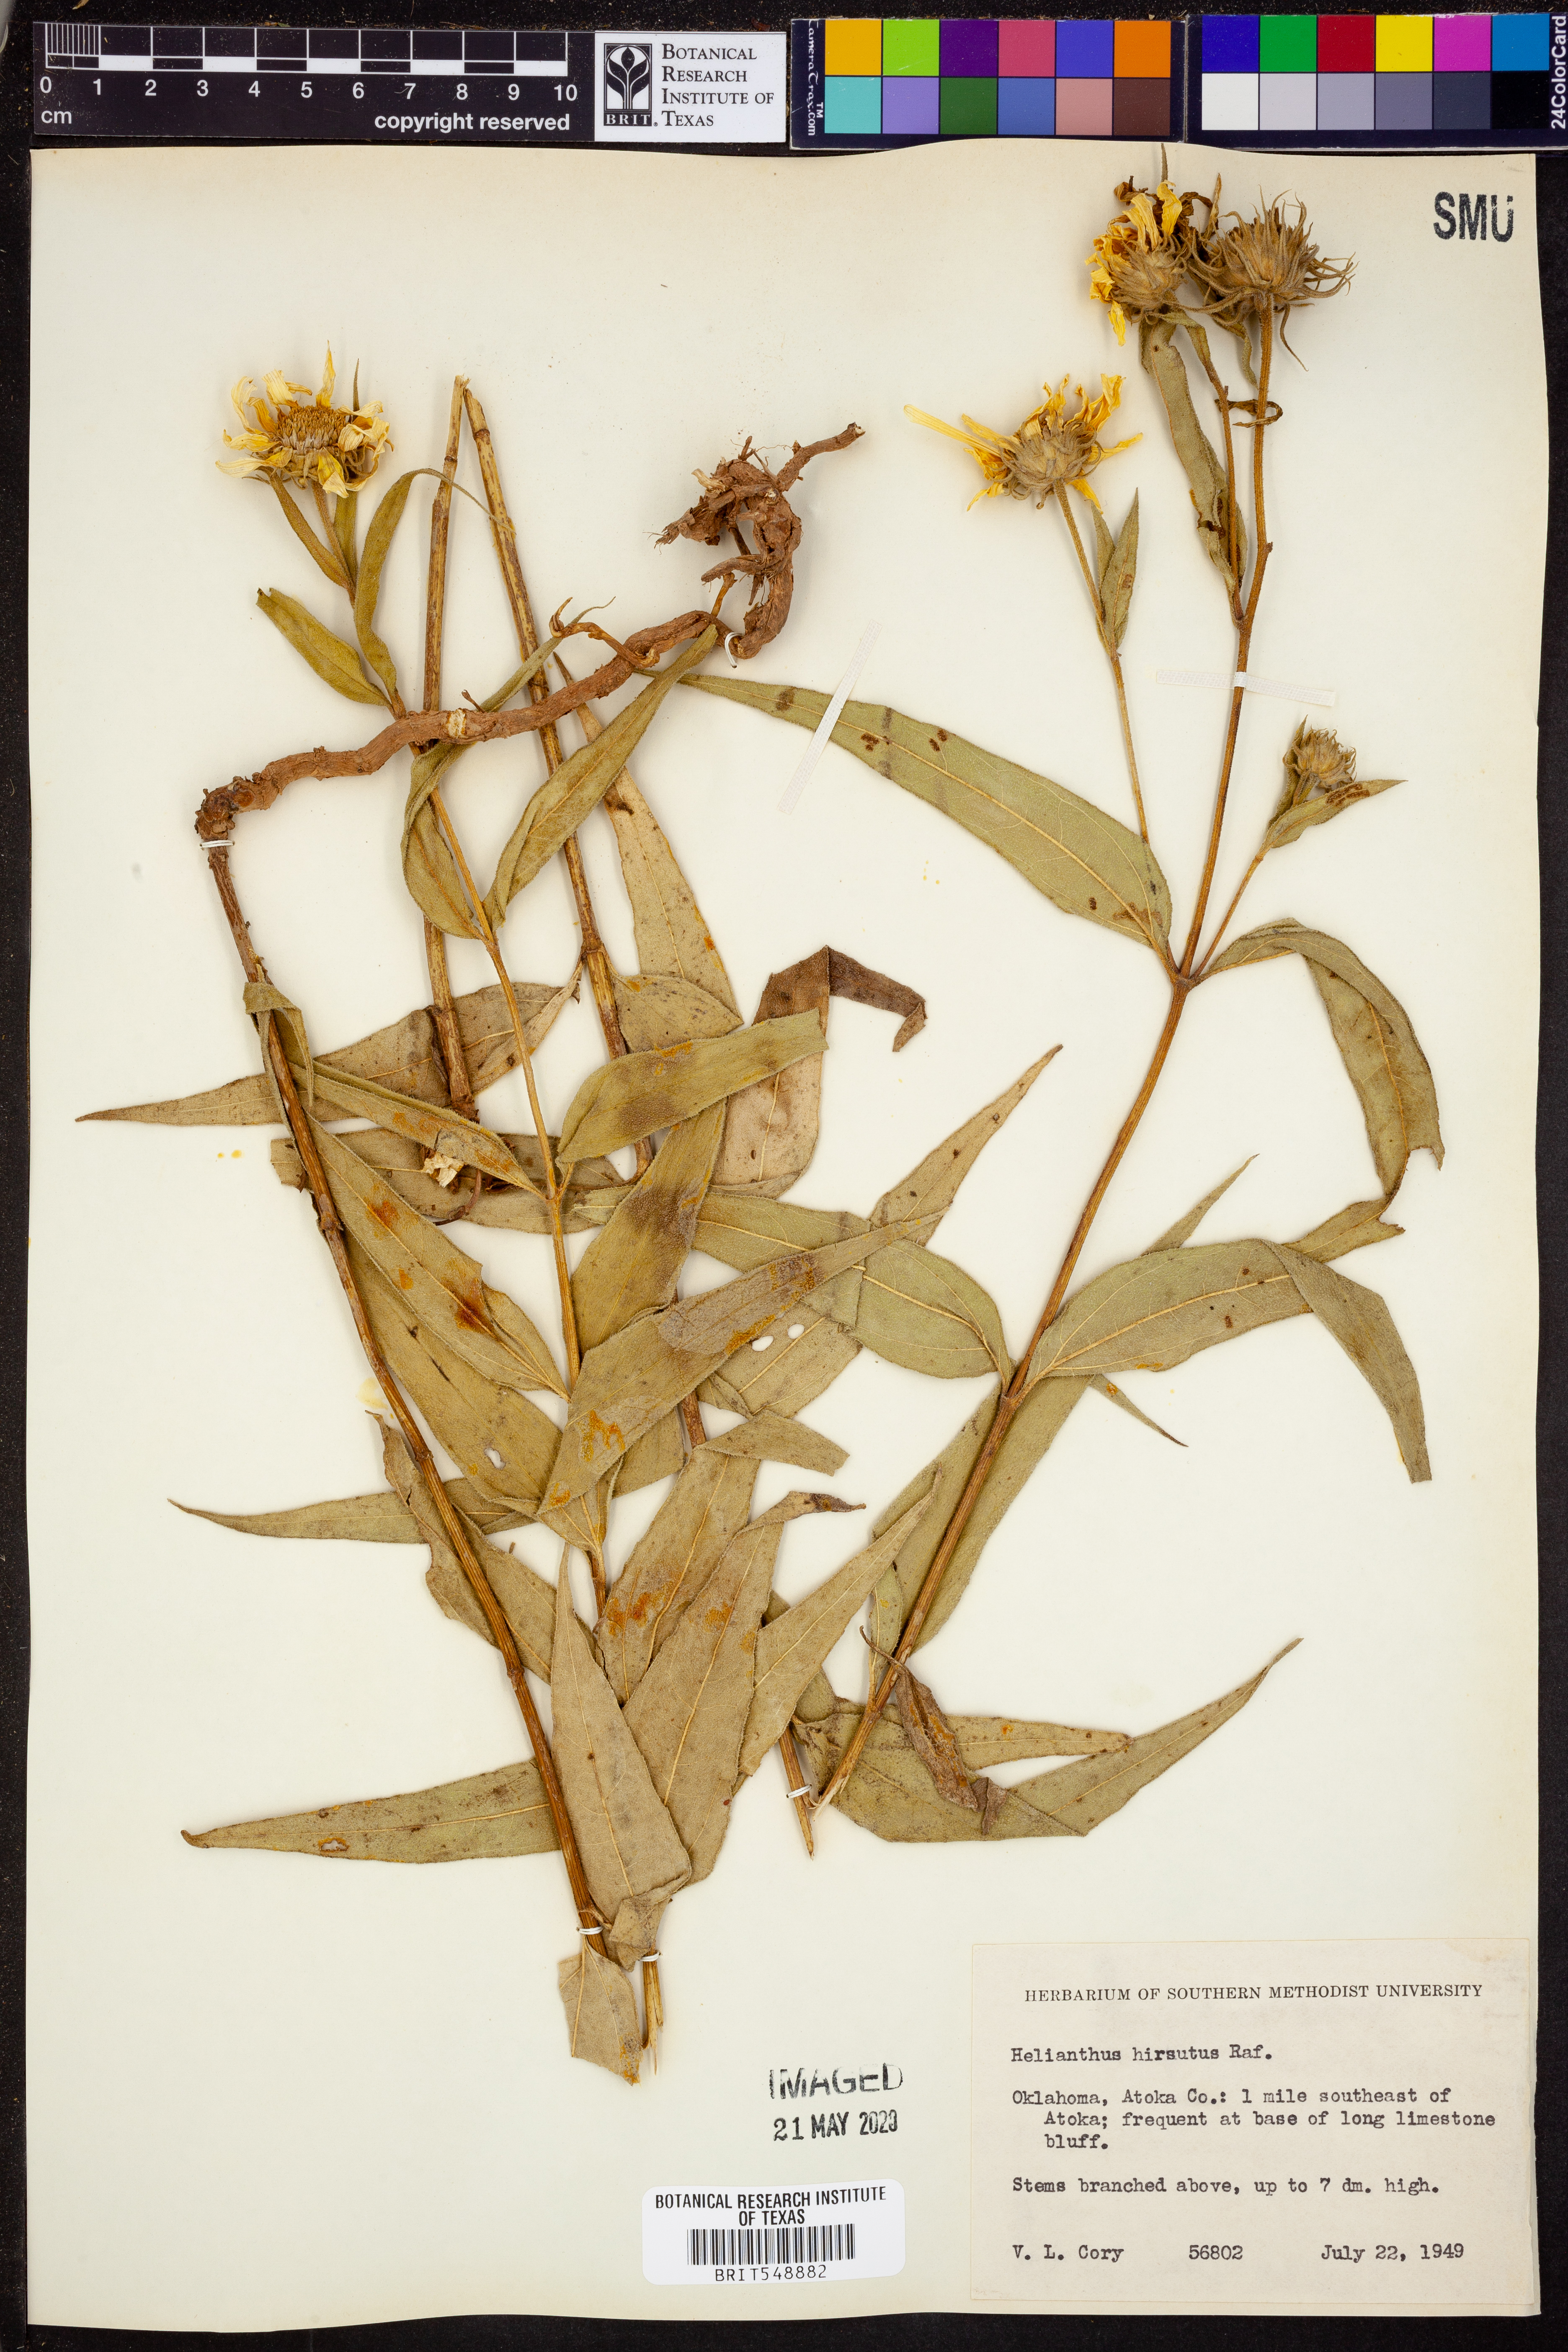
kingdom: Plantae
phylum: Tracheophyta
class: Magnoliopsida
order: Asterales
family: Asteraceae
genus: Helianthus
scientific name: Helianthus hirsutus
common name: Hairy sunflower
